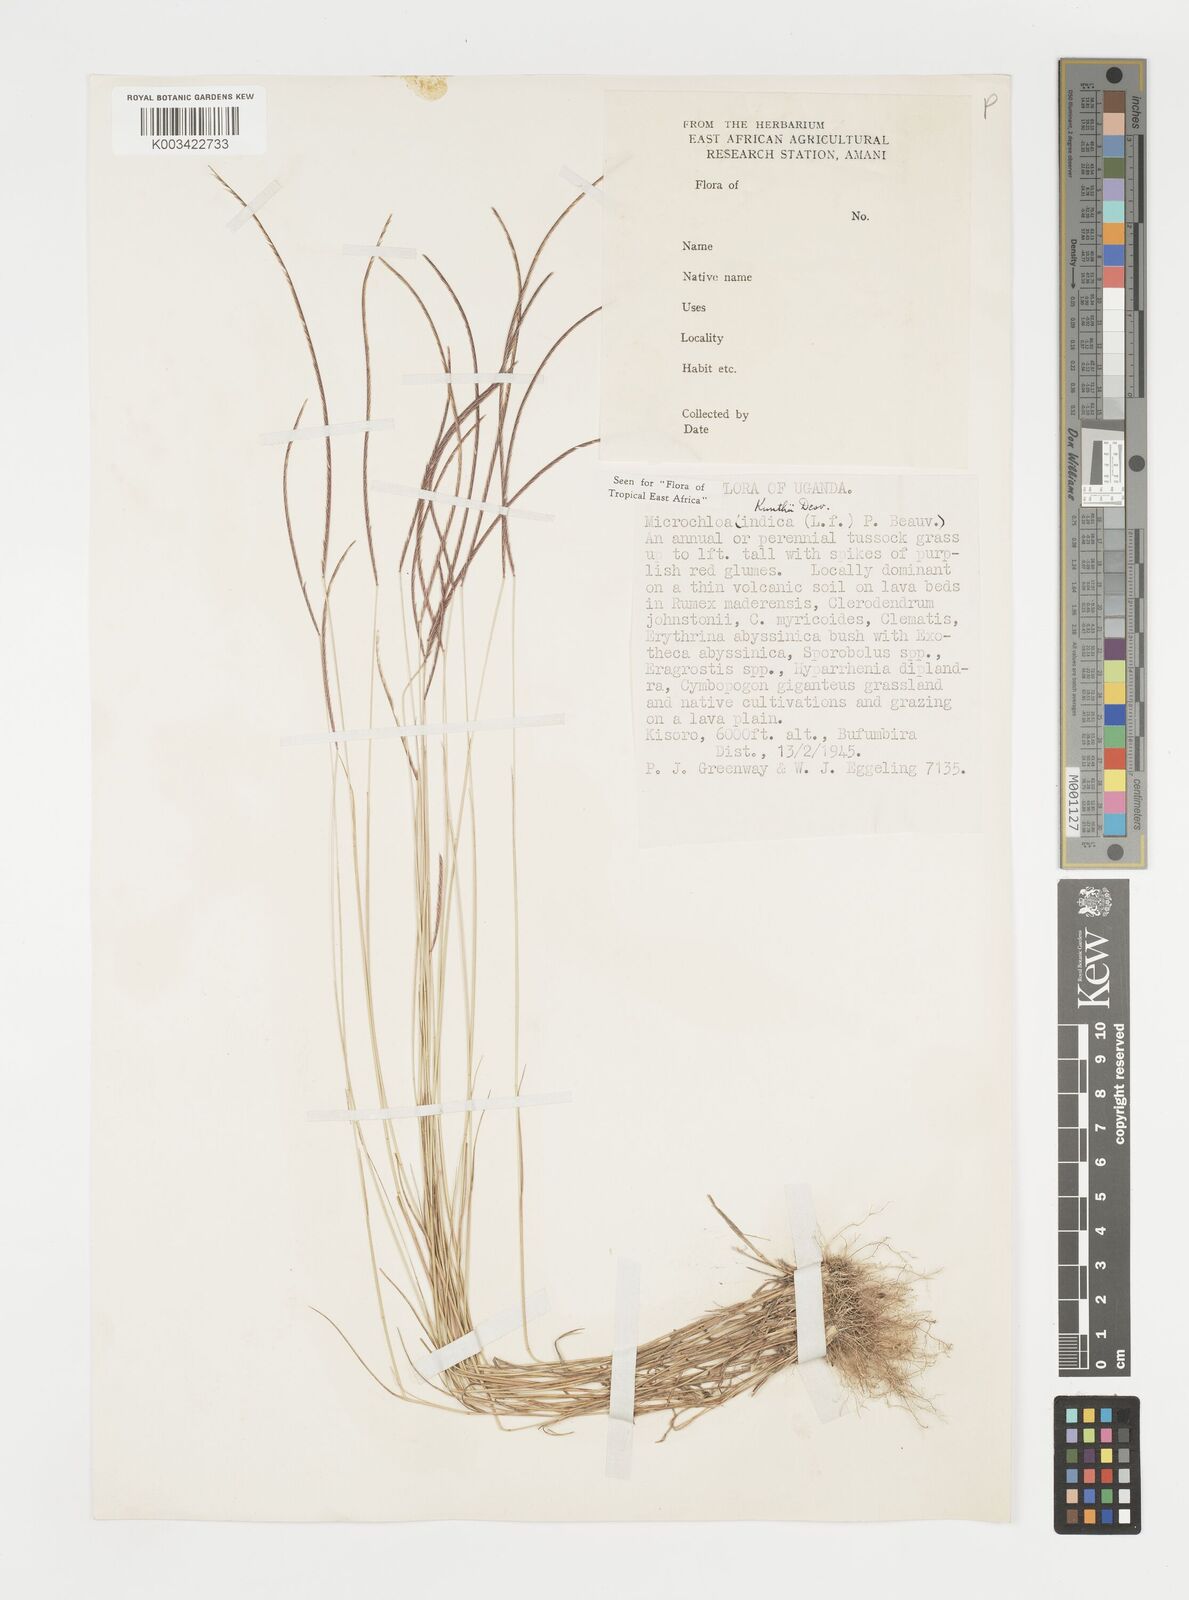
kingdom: Plantae
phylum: Tracheophyta
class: Liliopsida
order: Poales
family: Poaceae
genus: Microchloa
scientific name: Microchloa kunthii
